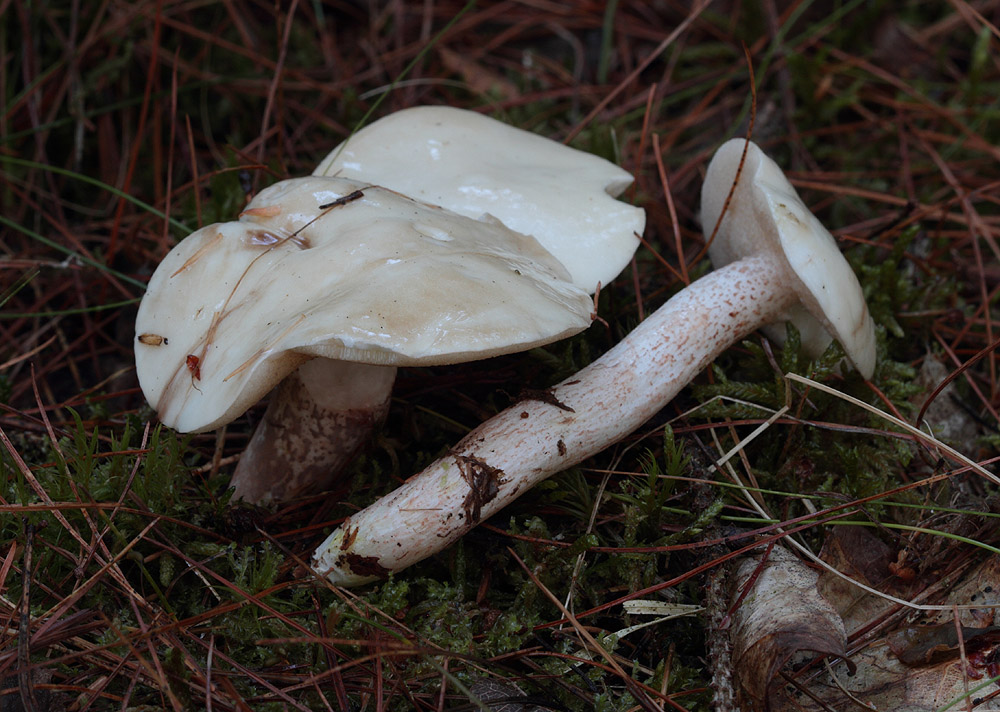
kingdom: Fungi
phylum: Basidiomycota
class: Agaricomycetes
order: Boletales
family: Suillaceae
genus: Suillus
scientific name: Suillus placidus
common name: elfenbens-slimrørhat
